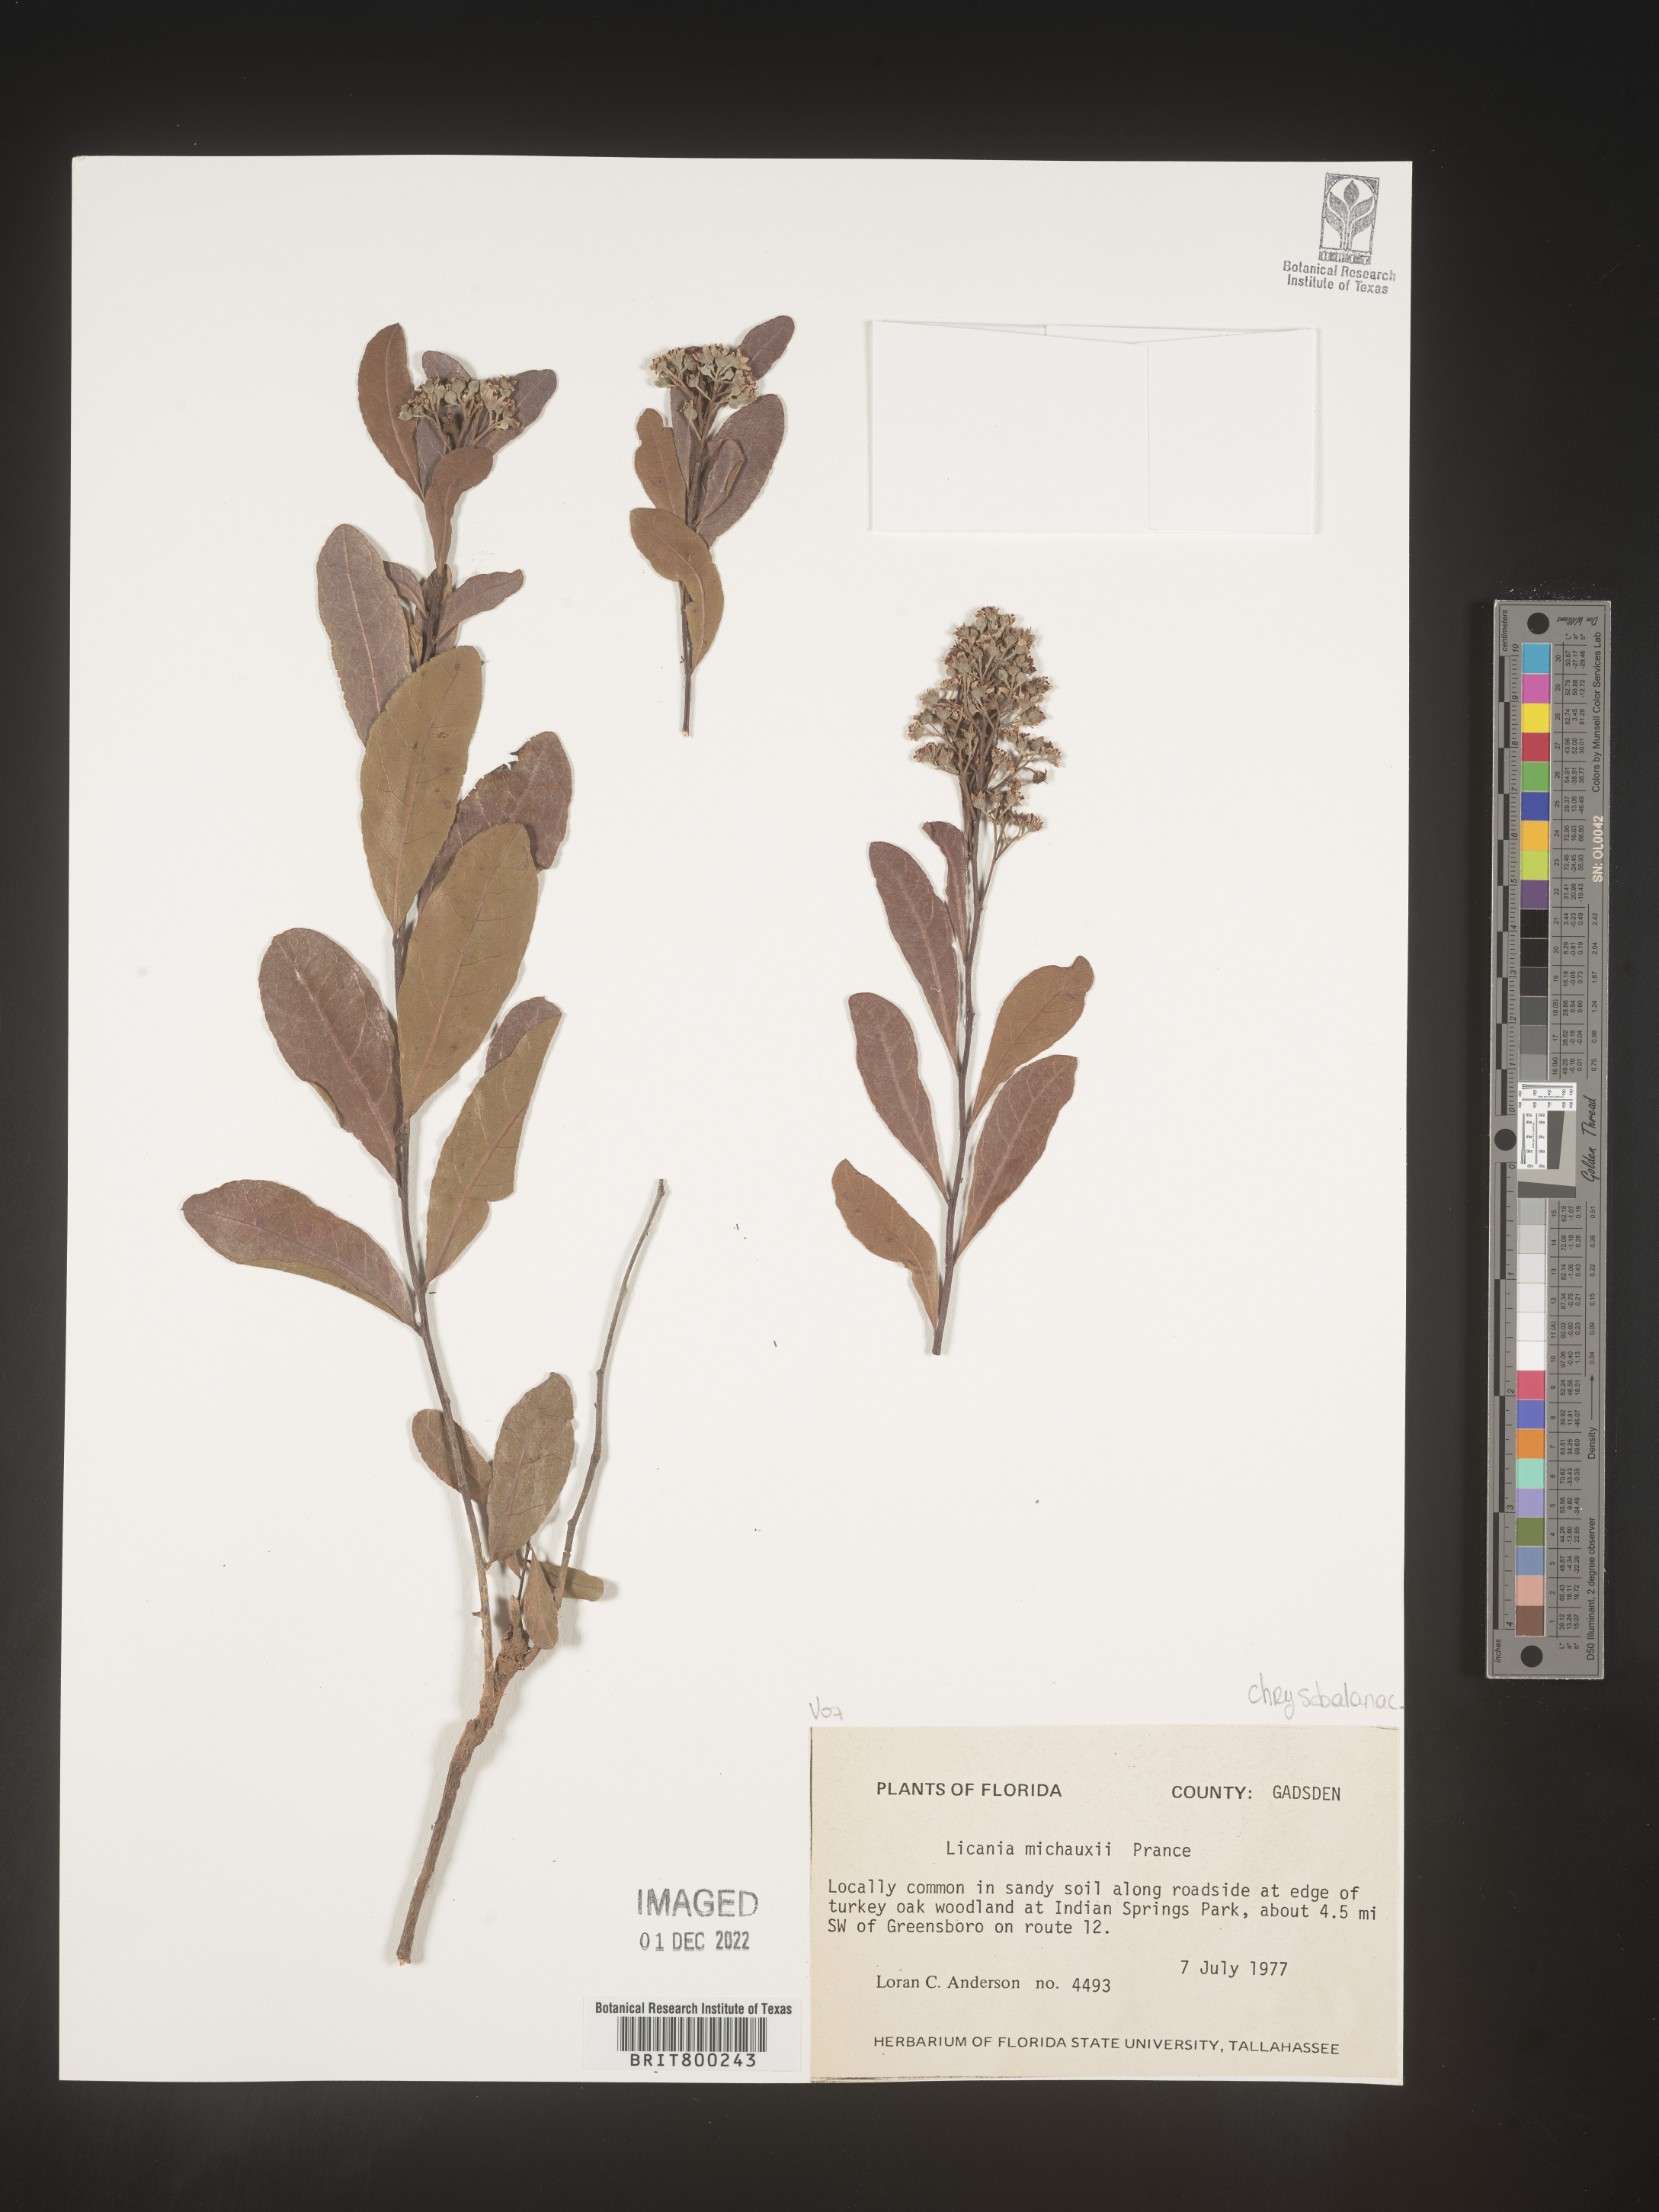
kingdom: Plantae
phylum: Tracheophyta
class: Magnoliopsida
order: Malpighiales
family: Chrysobalanaceae
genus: Geobalanus
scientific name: Geobalanus oblongifolius
